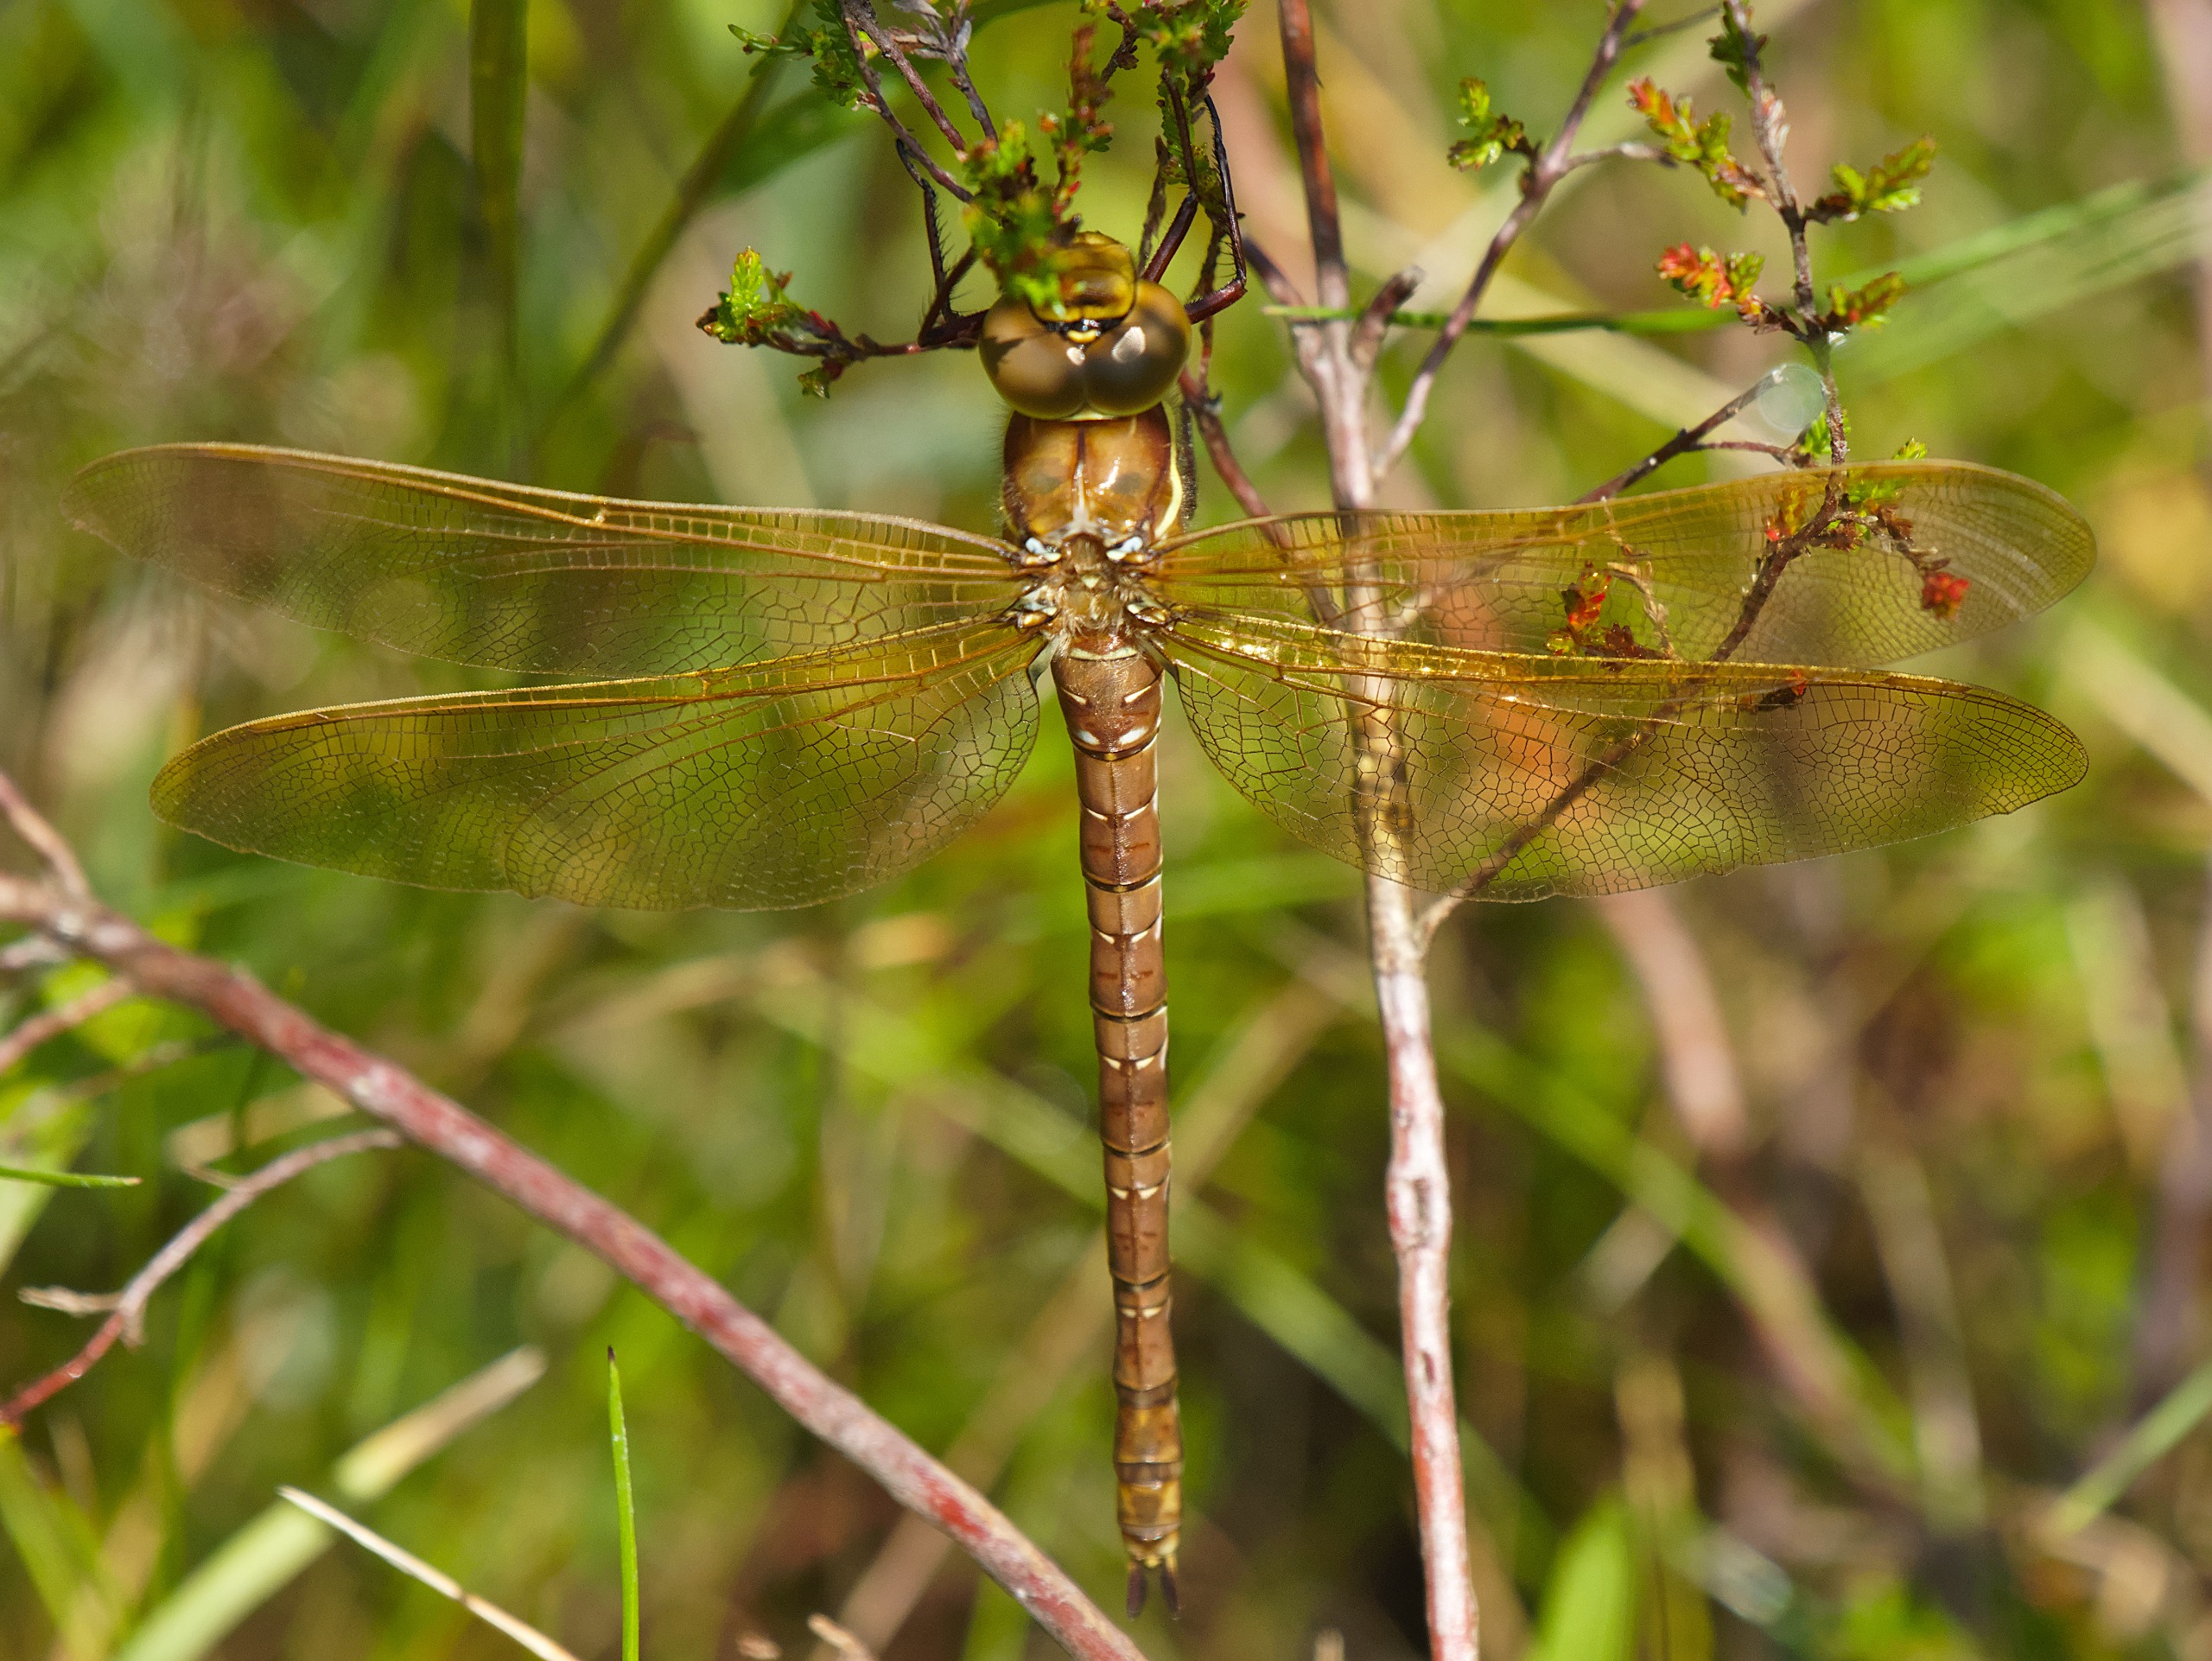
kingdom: Animalia
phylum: Arthropoda
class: Insecta
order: Odonata
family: Aeshnidae
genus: Aeshna
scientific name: Aeshna grandis
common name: Brun mosaikguldsmed
